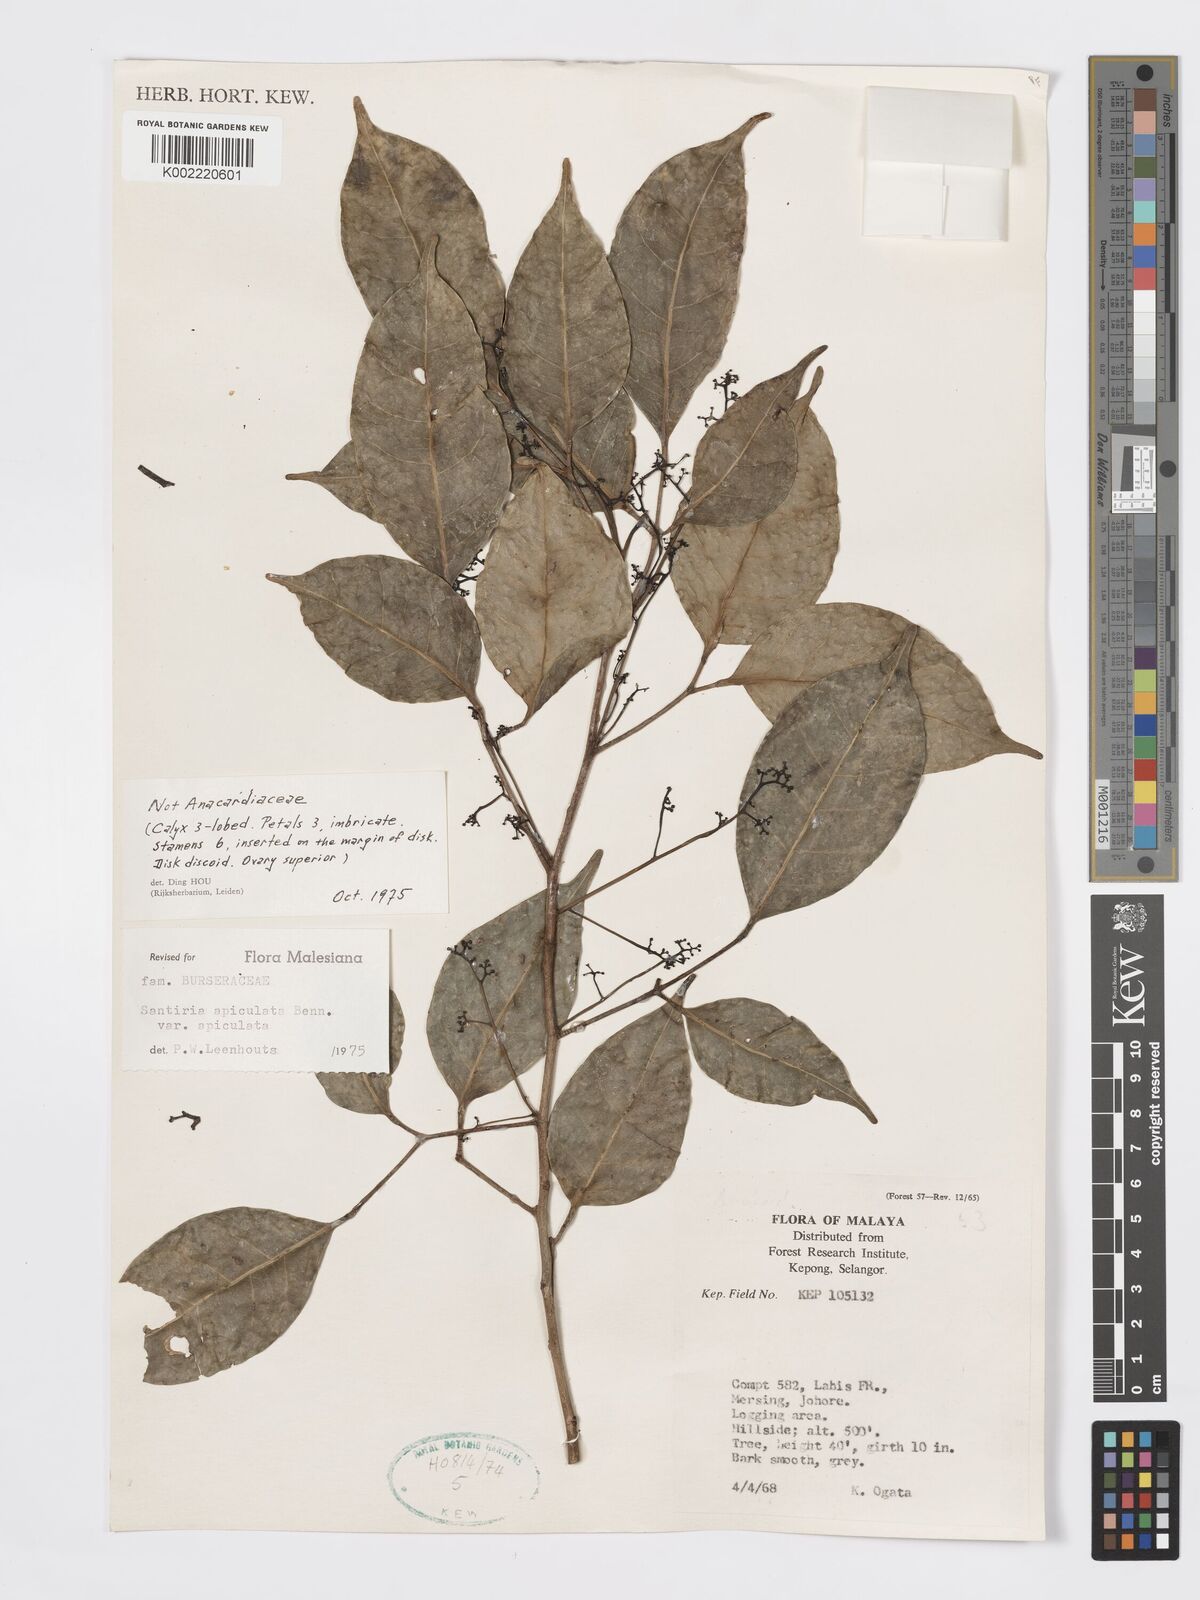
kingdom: Plantae
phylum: Tracheophyta
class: Magnoliopsida
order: Sapindales
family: Burseraceae
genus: Santiria
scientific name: Santiria apiculata
